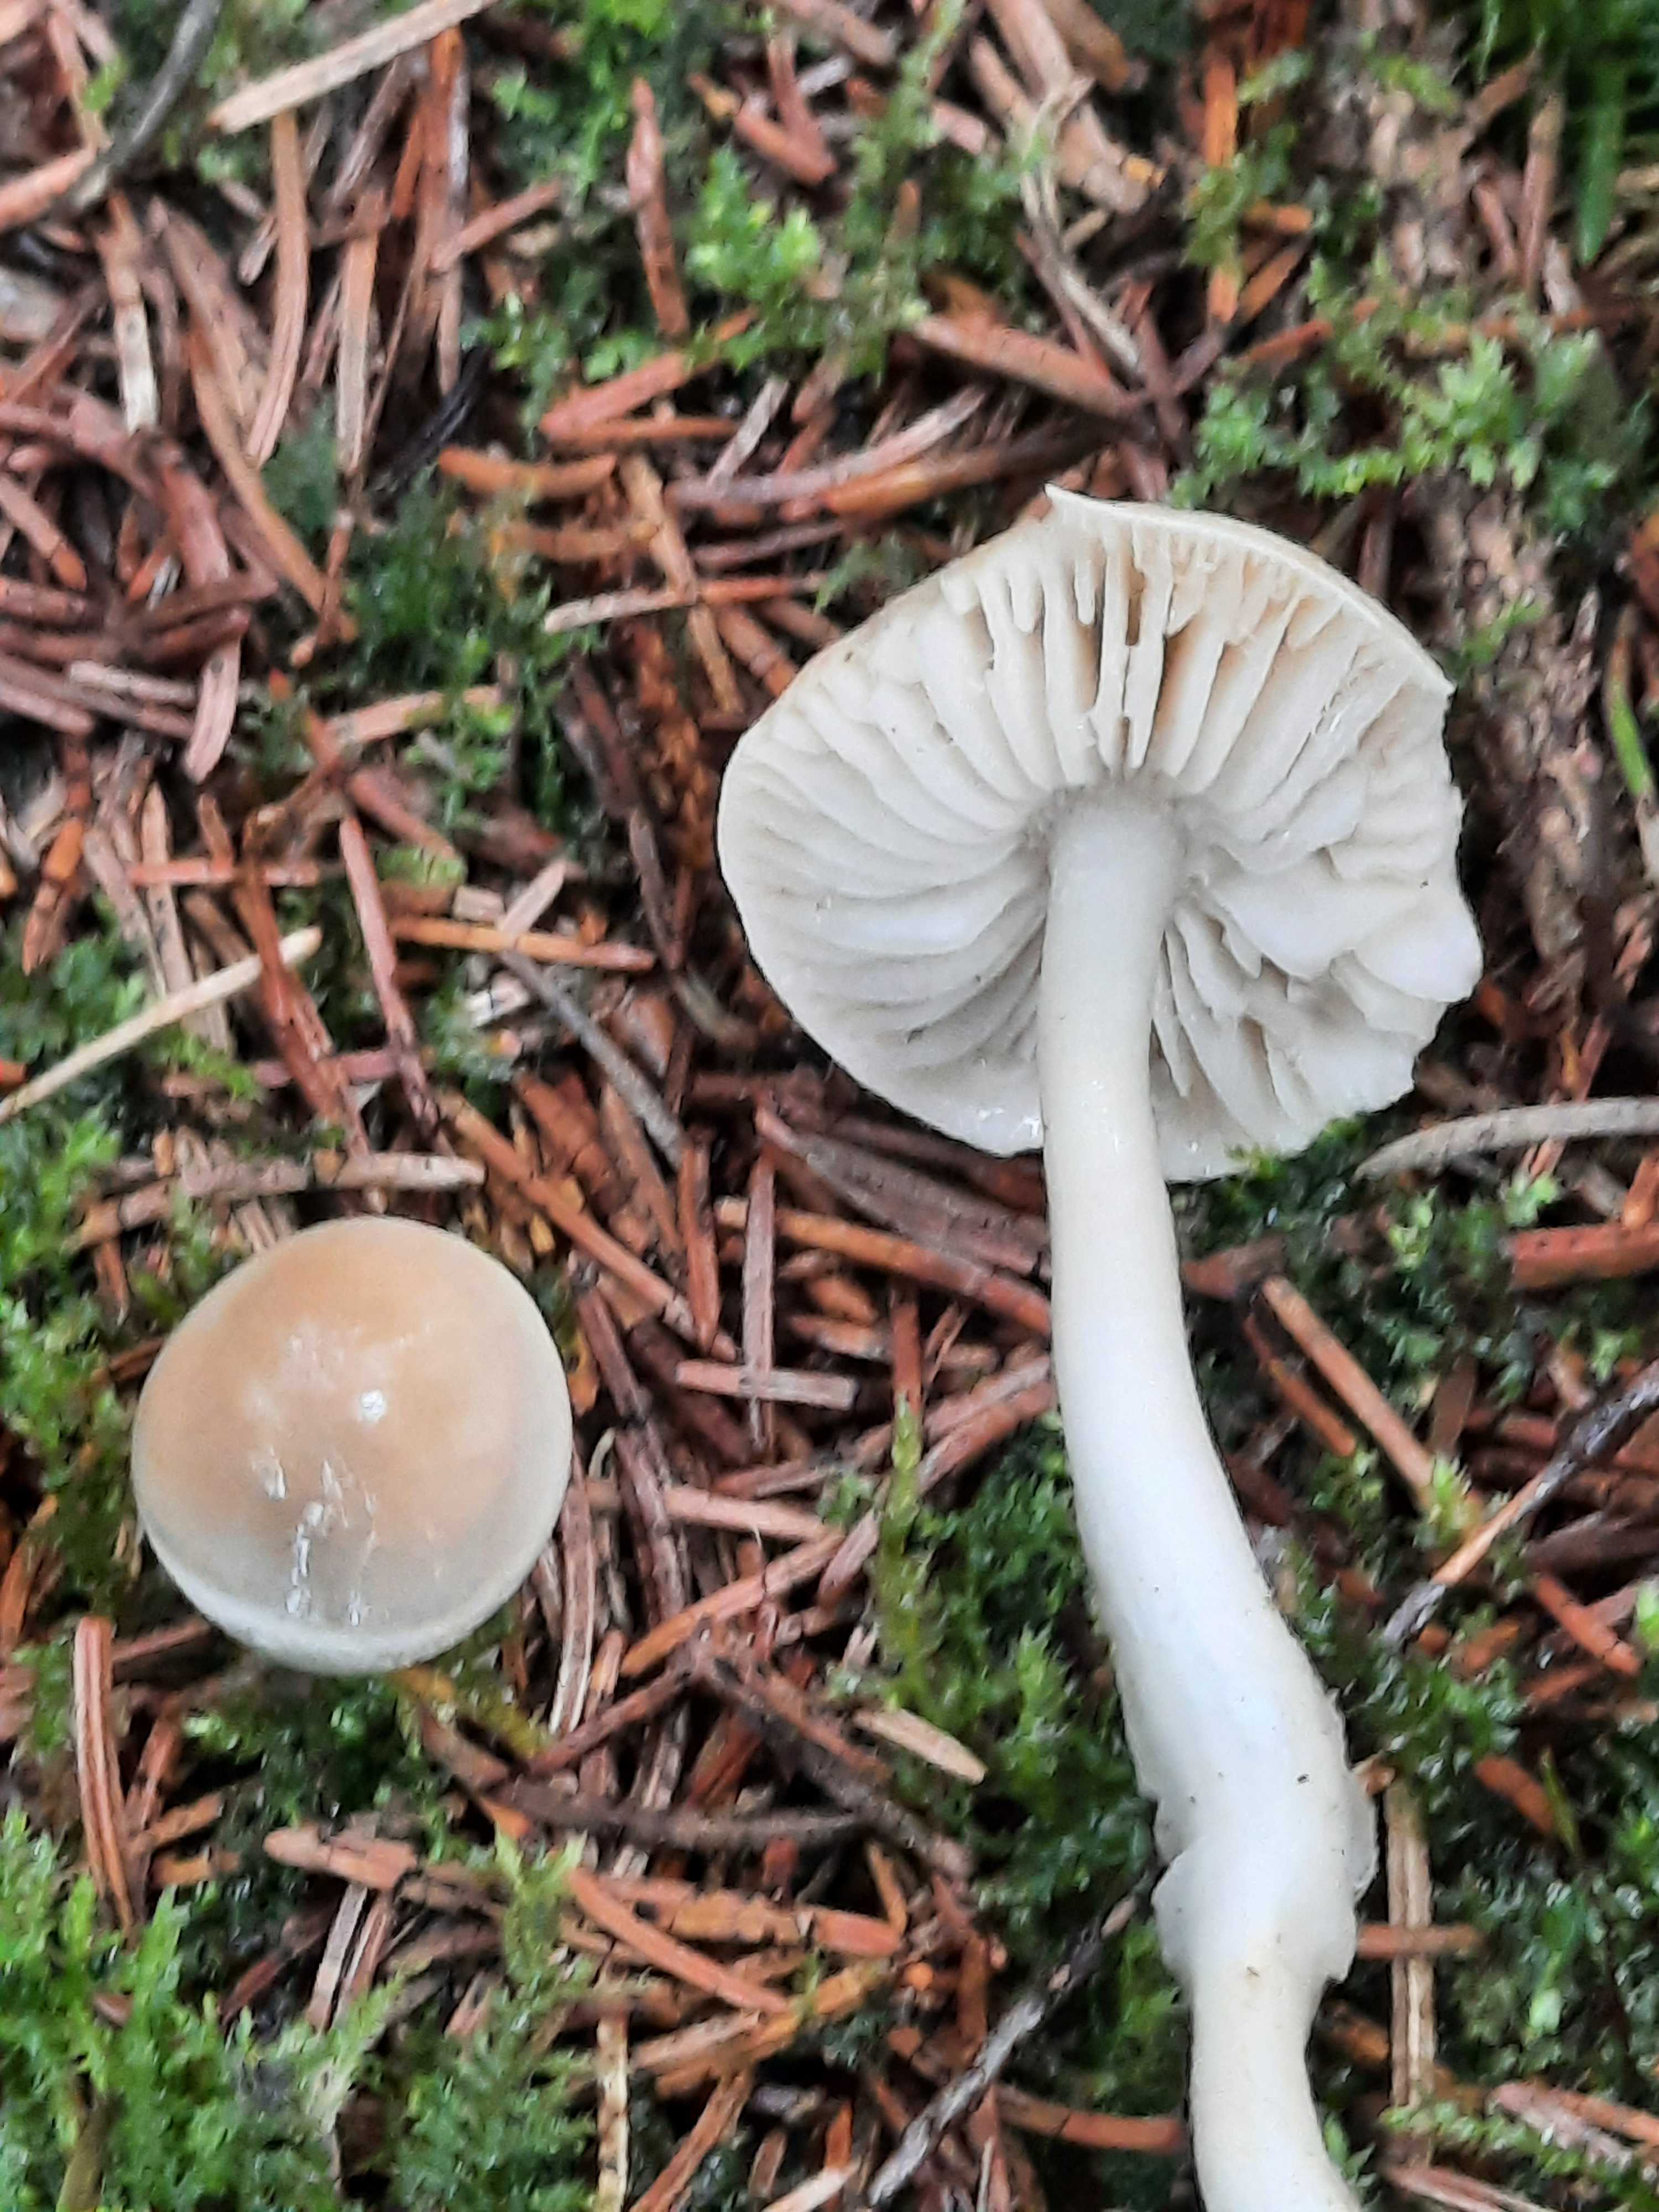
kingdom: Fungi
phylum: Basidiomycota
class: Agaricomycetes
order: Agaricales
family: Tricholomataceae
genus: Tricholoma
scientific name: Tricholoma inamoenum
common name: højstokket ridderhat
